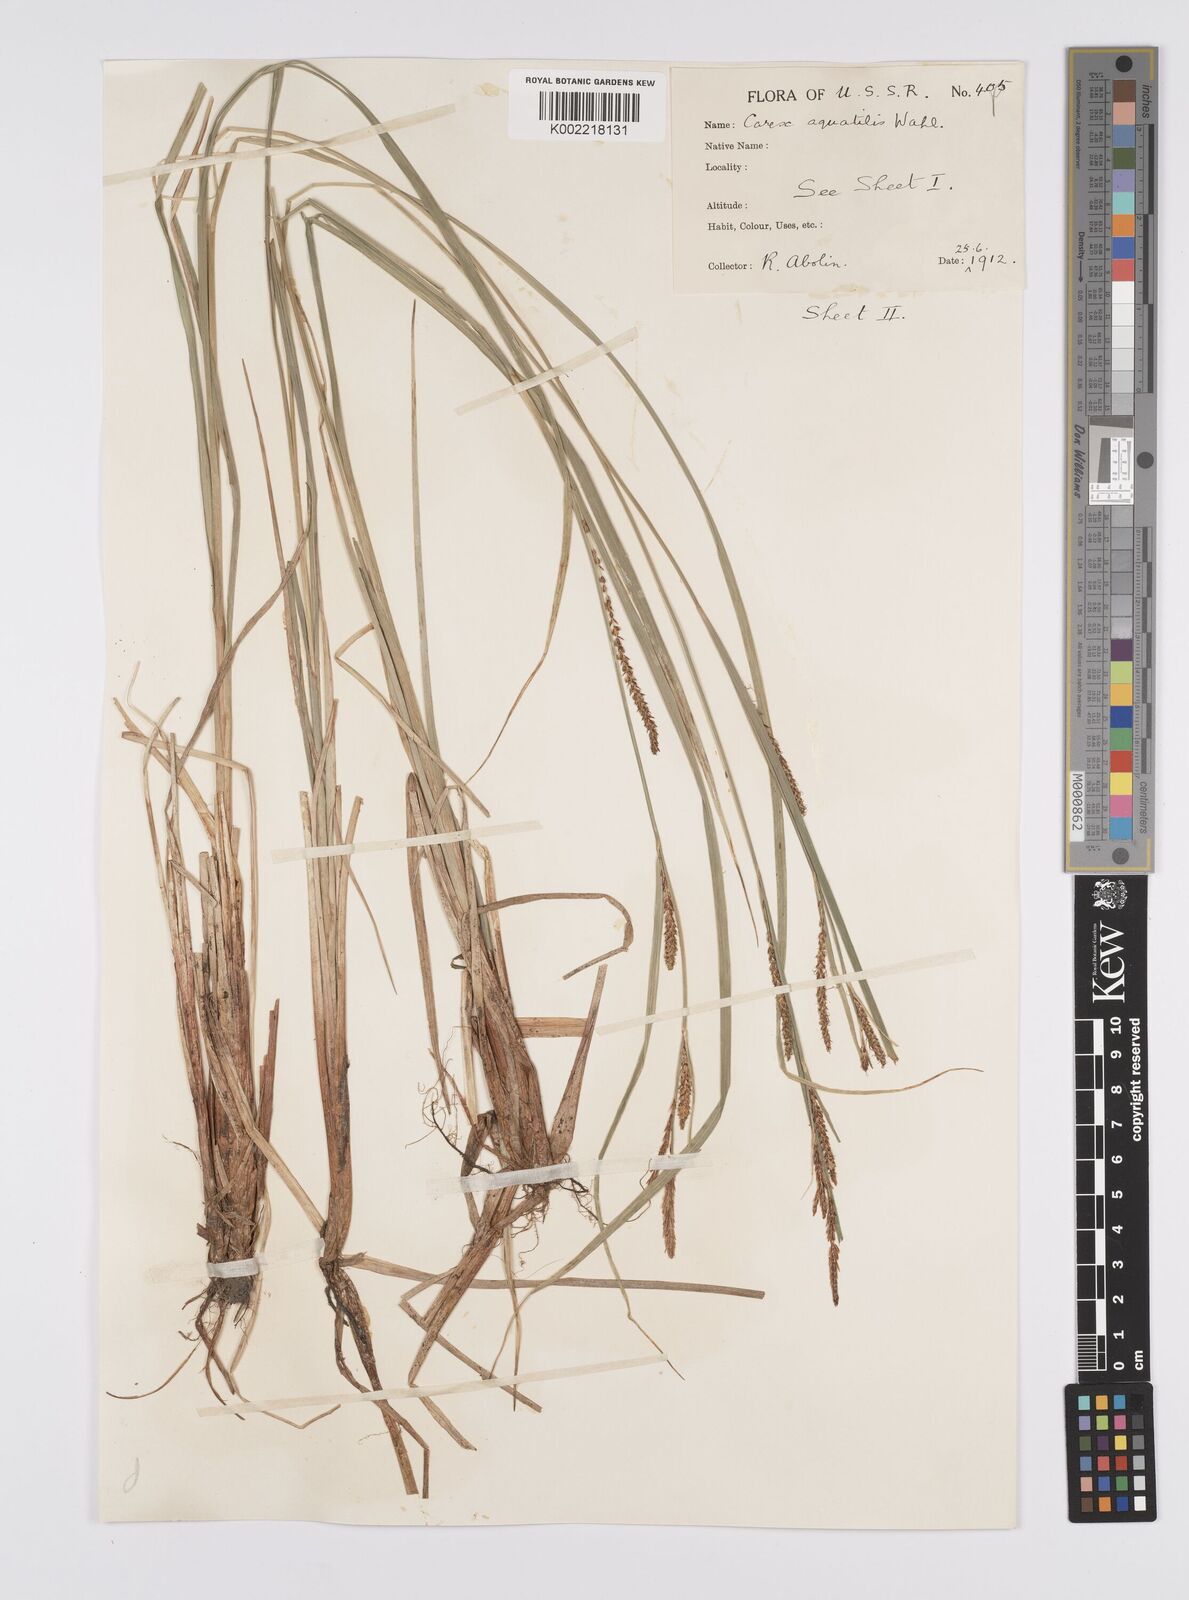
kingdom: Plantae
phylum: Tracheophyta
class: Liliopsida
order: Poales
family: Cyperaceae
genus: Carex
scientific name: Carex aquatilis
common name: Water sedge
